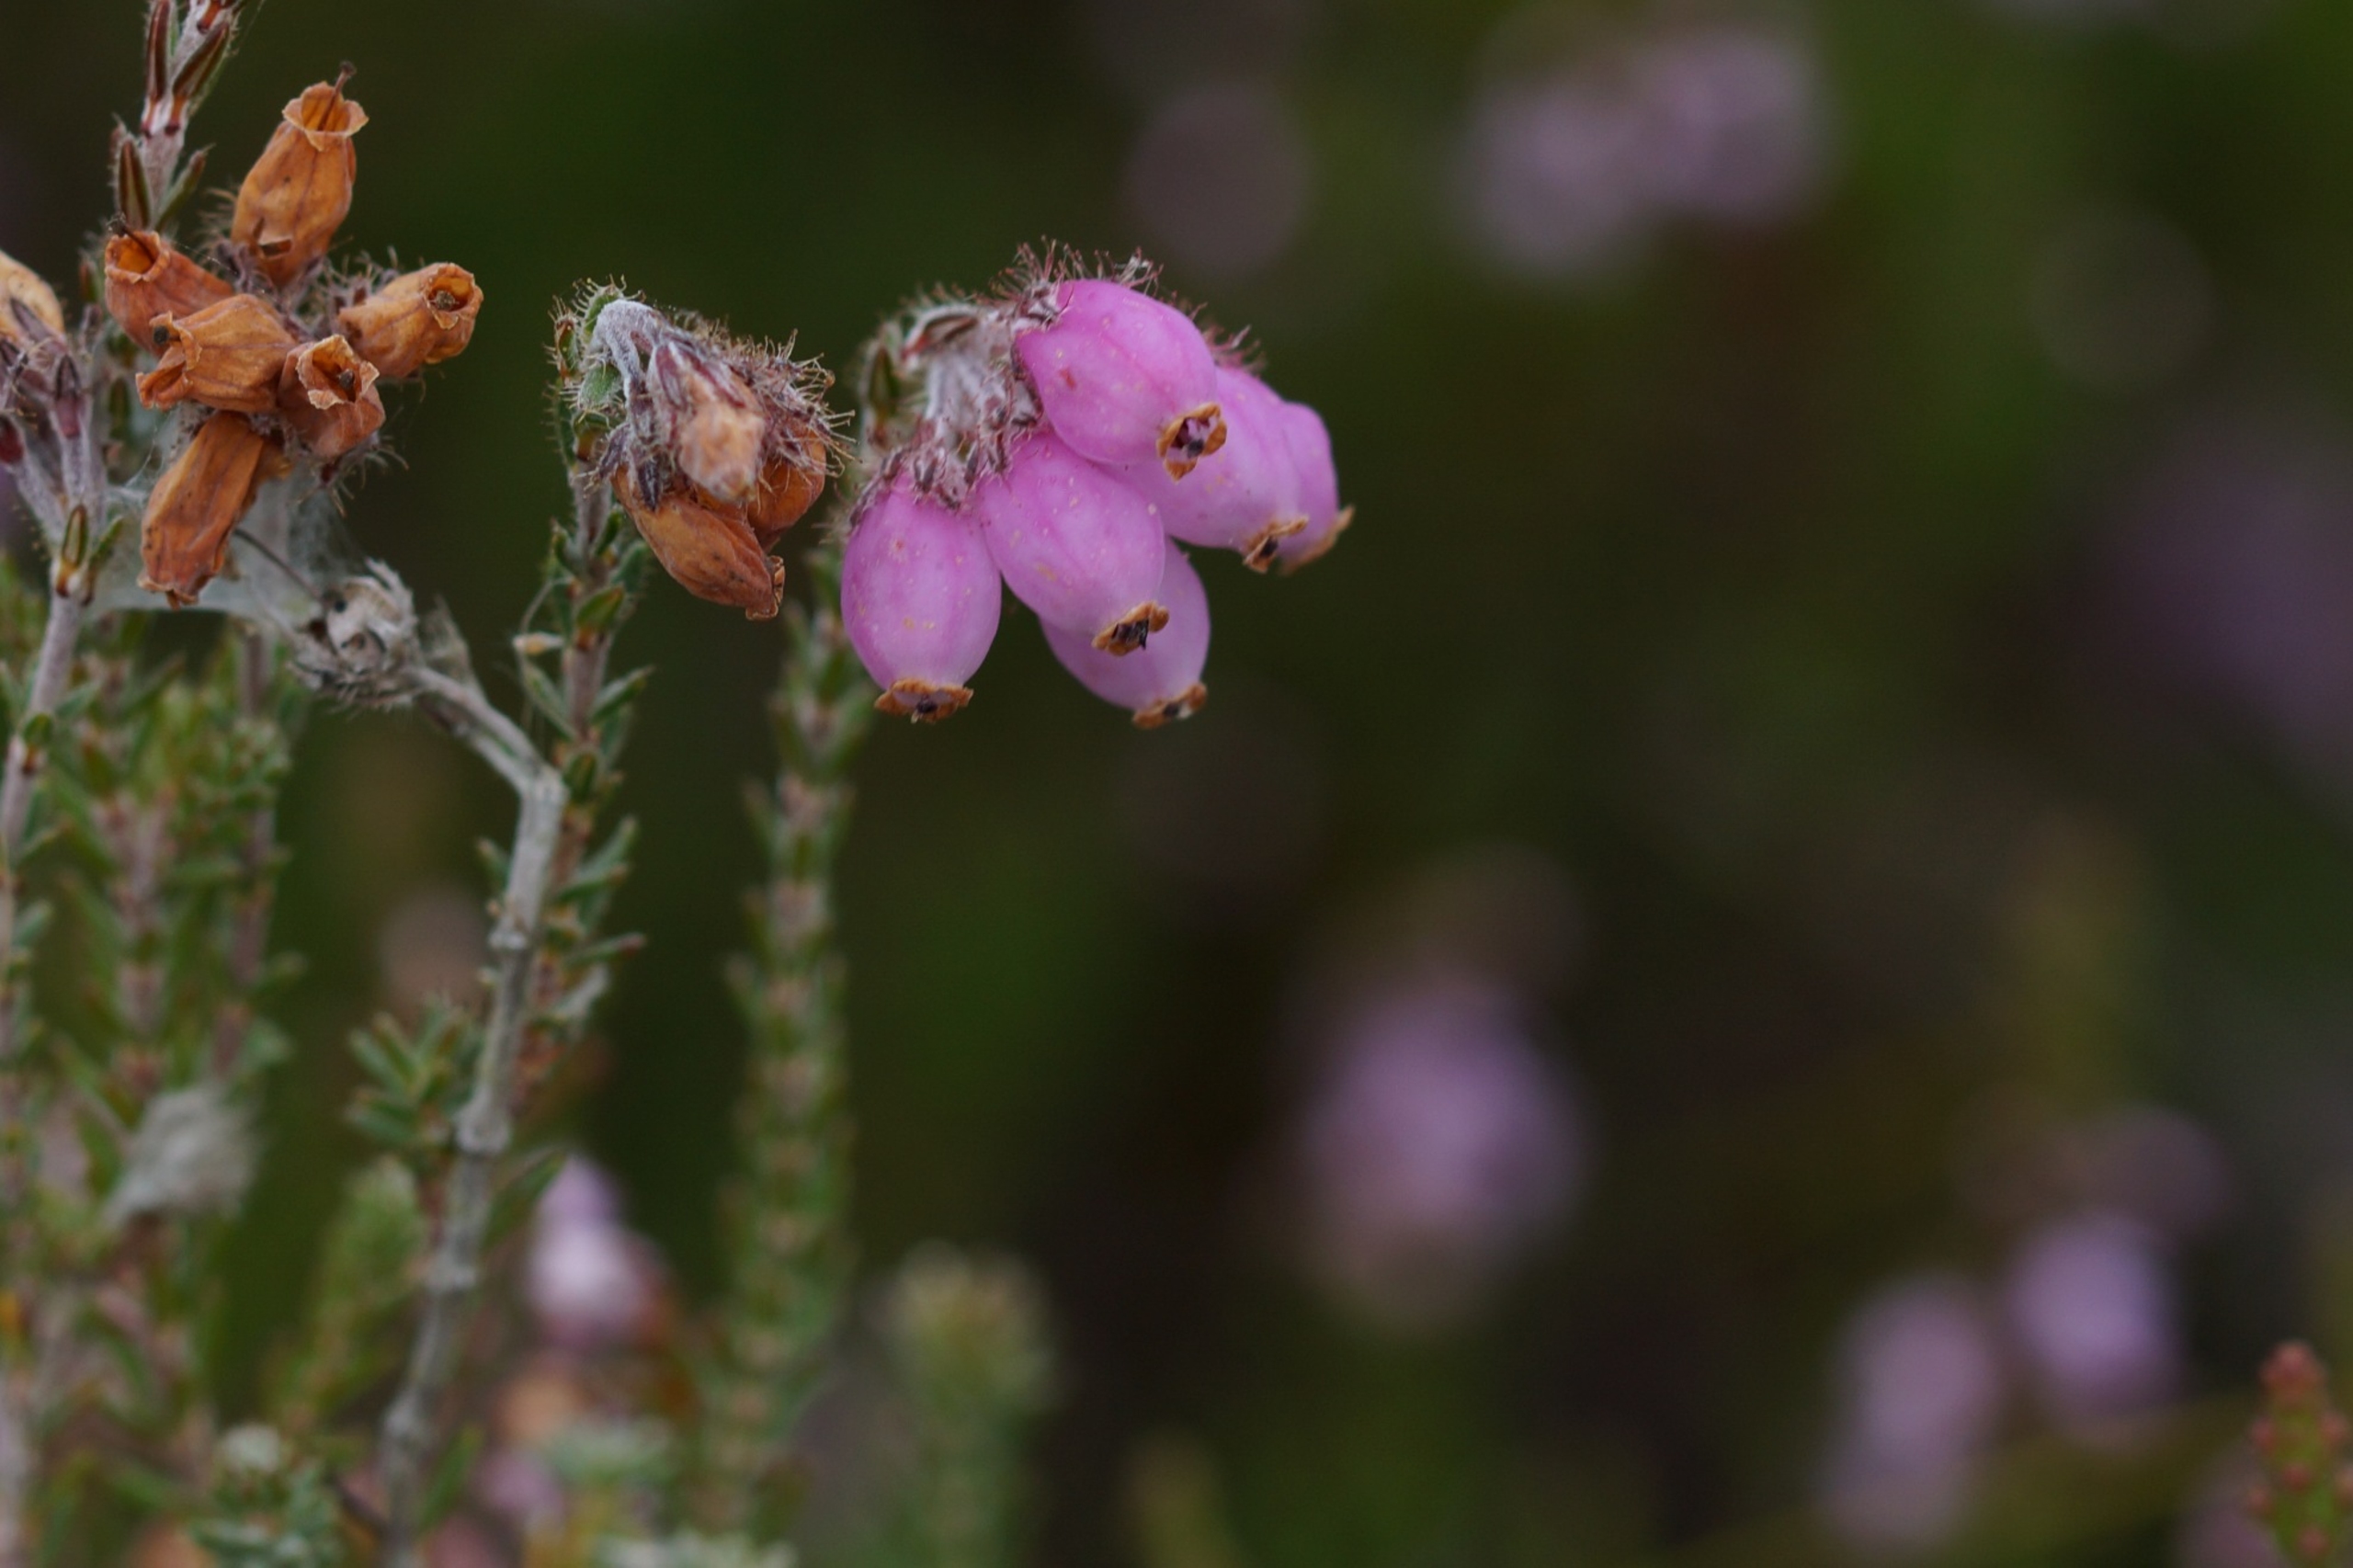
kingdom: Plantae
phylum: Tracheophyta
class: Magnoliopsida
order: Ericales
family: Ericaceae
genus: Erica
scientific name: Erica tetralix
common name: Klokkelyng
